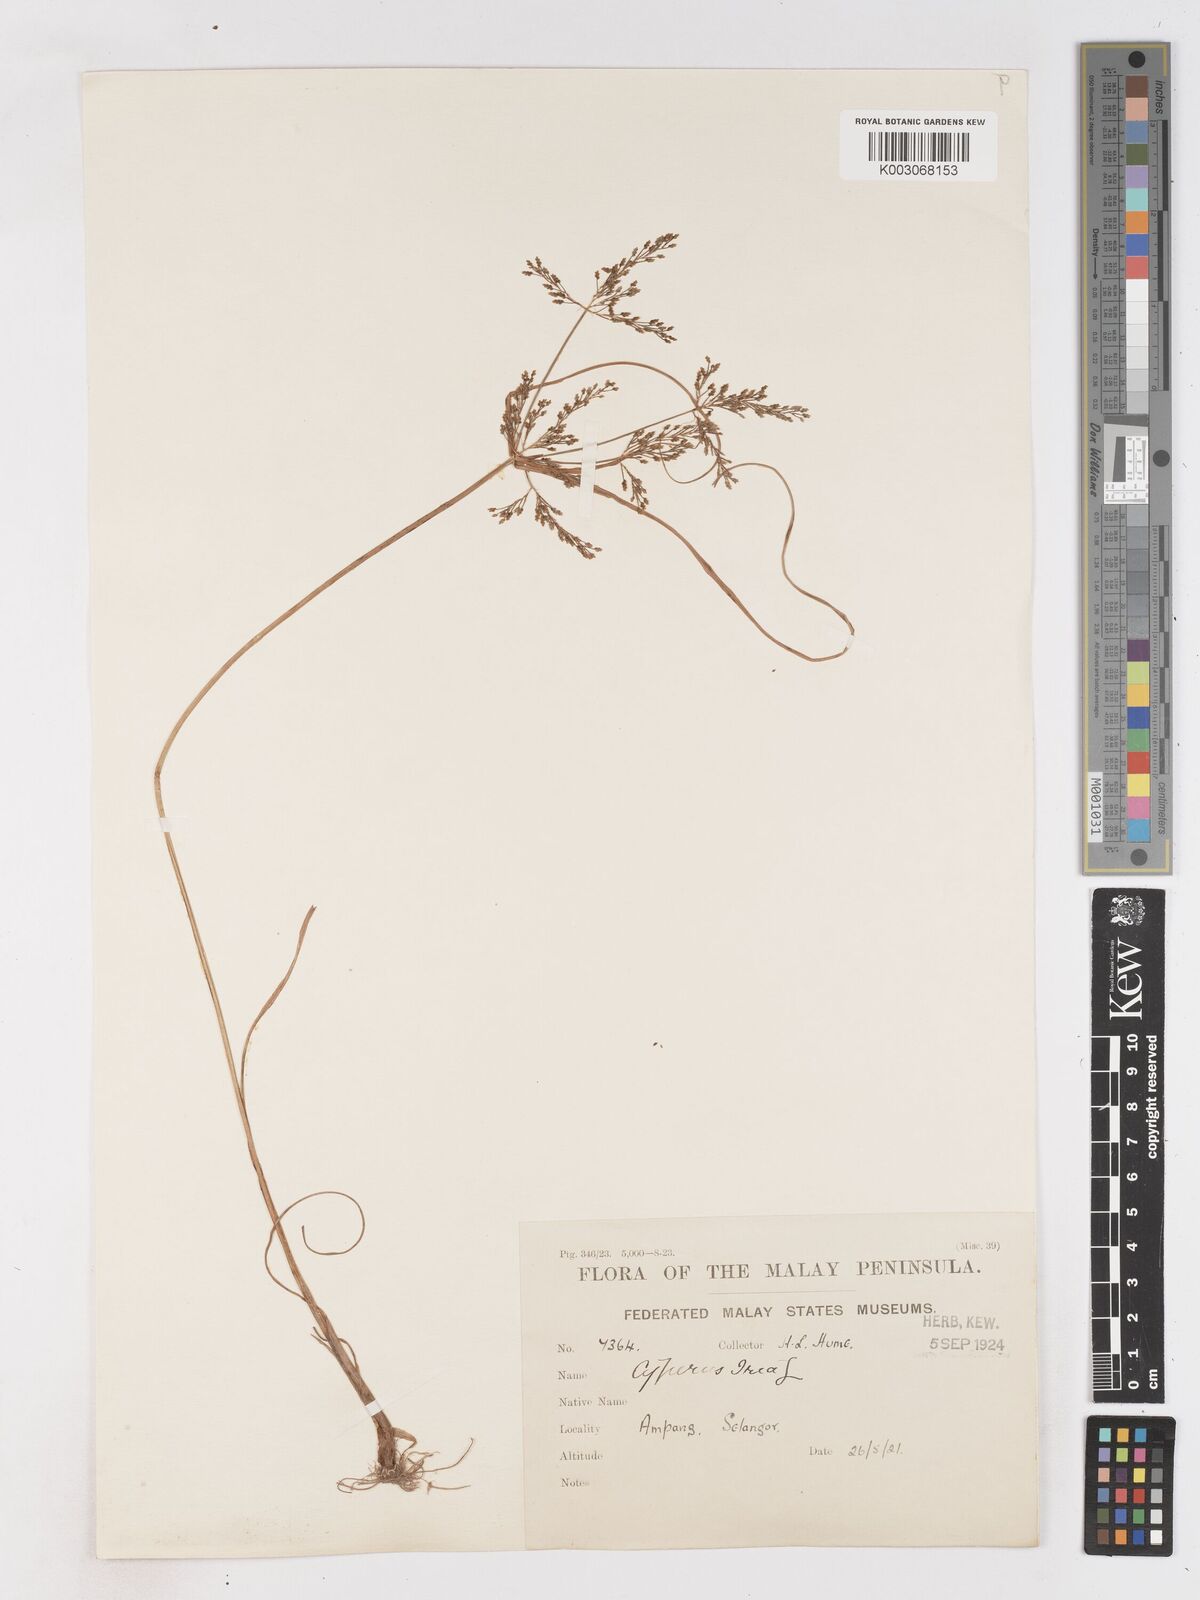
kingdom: Plantae
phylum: Tracheophyta
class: Liliopsida
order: Poales
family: Cyperaceae
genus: Cyperus
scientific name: Cyperus iria
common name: Ricefield flatsedge
